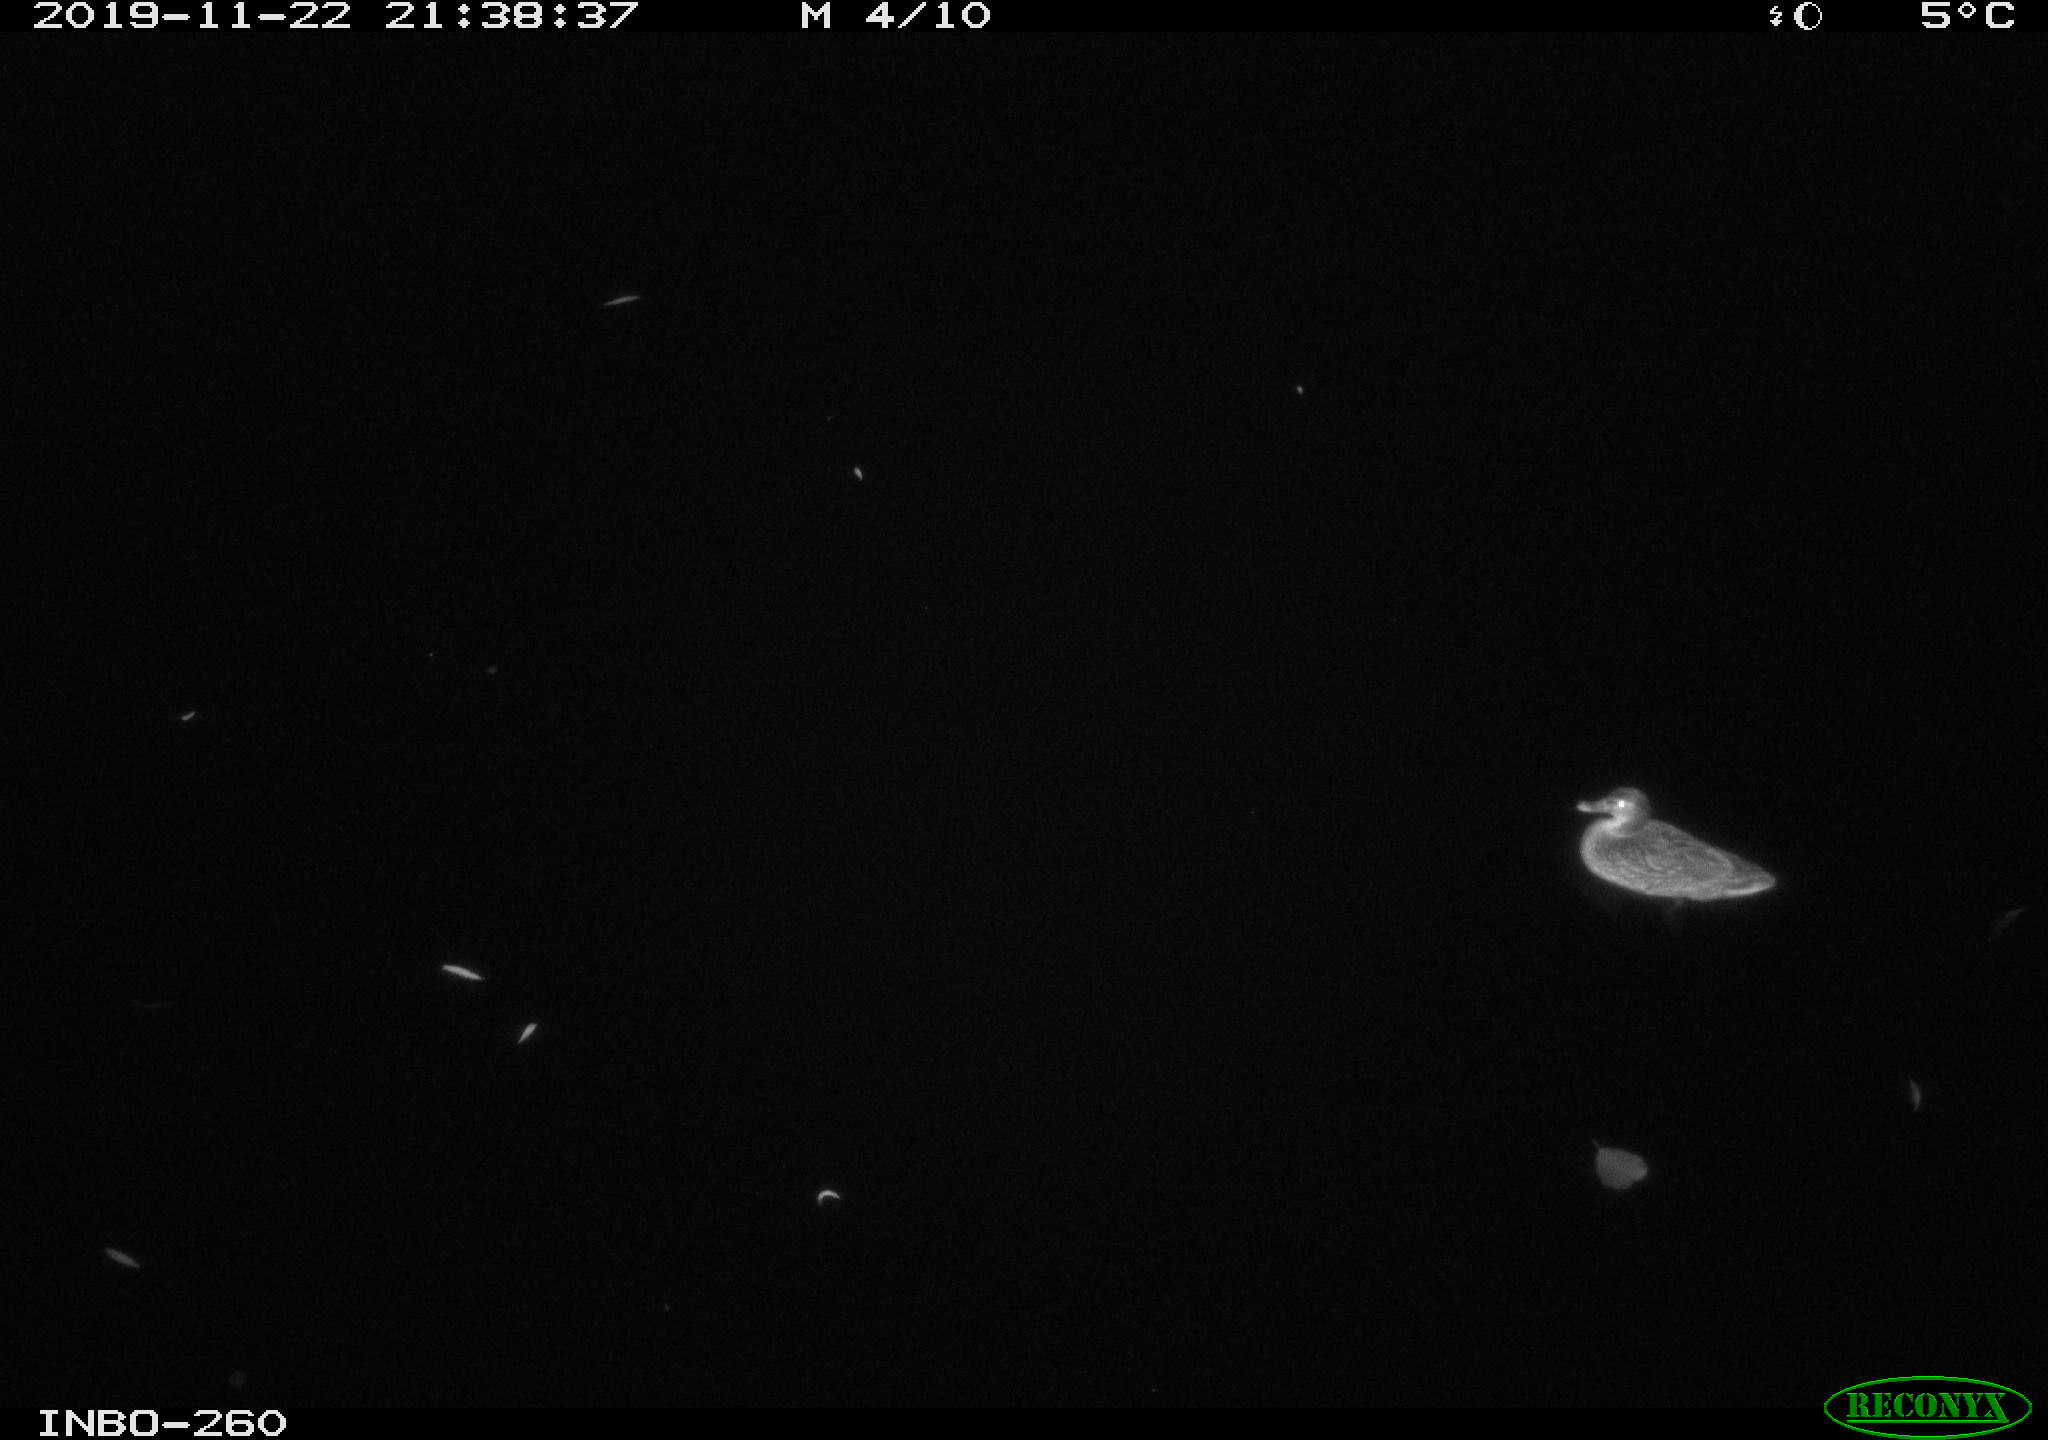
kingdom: Animalia
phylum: Chordata
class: Aves
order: Anseriformes
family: Anatidae
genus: Anas
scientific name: Anas platyrhynchos
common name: Mallard
